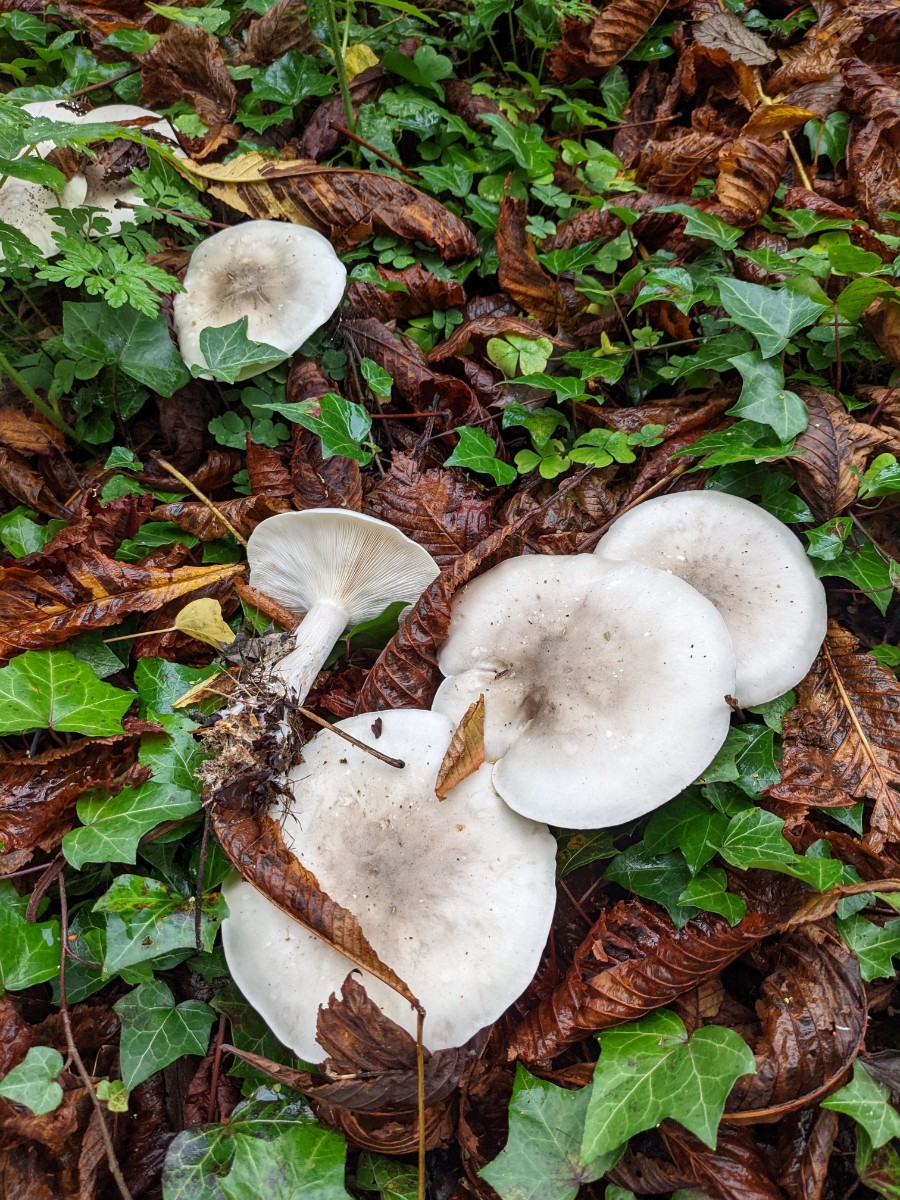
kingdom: Fungi
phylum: Basidiomycota
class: Agaricomycetes
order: Agaricales
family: Tricholomataceae
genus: Clitocybe
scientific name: Clitocybe nebularis
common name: tåge-tragthat
